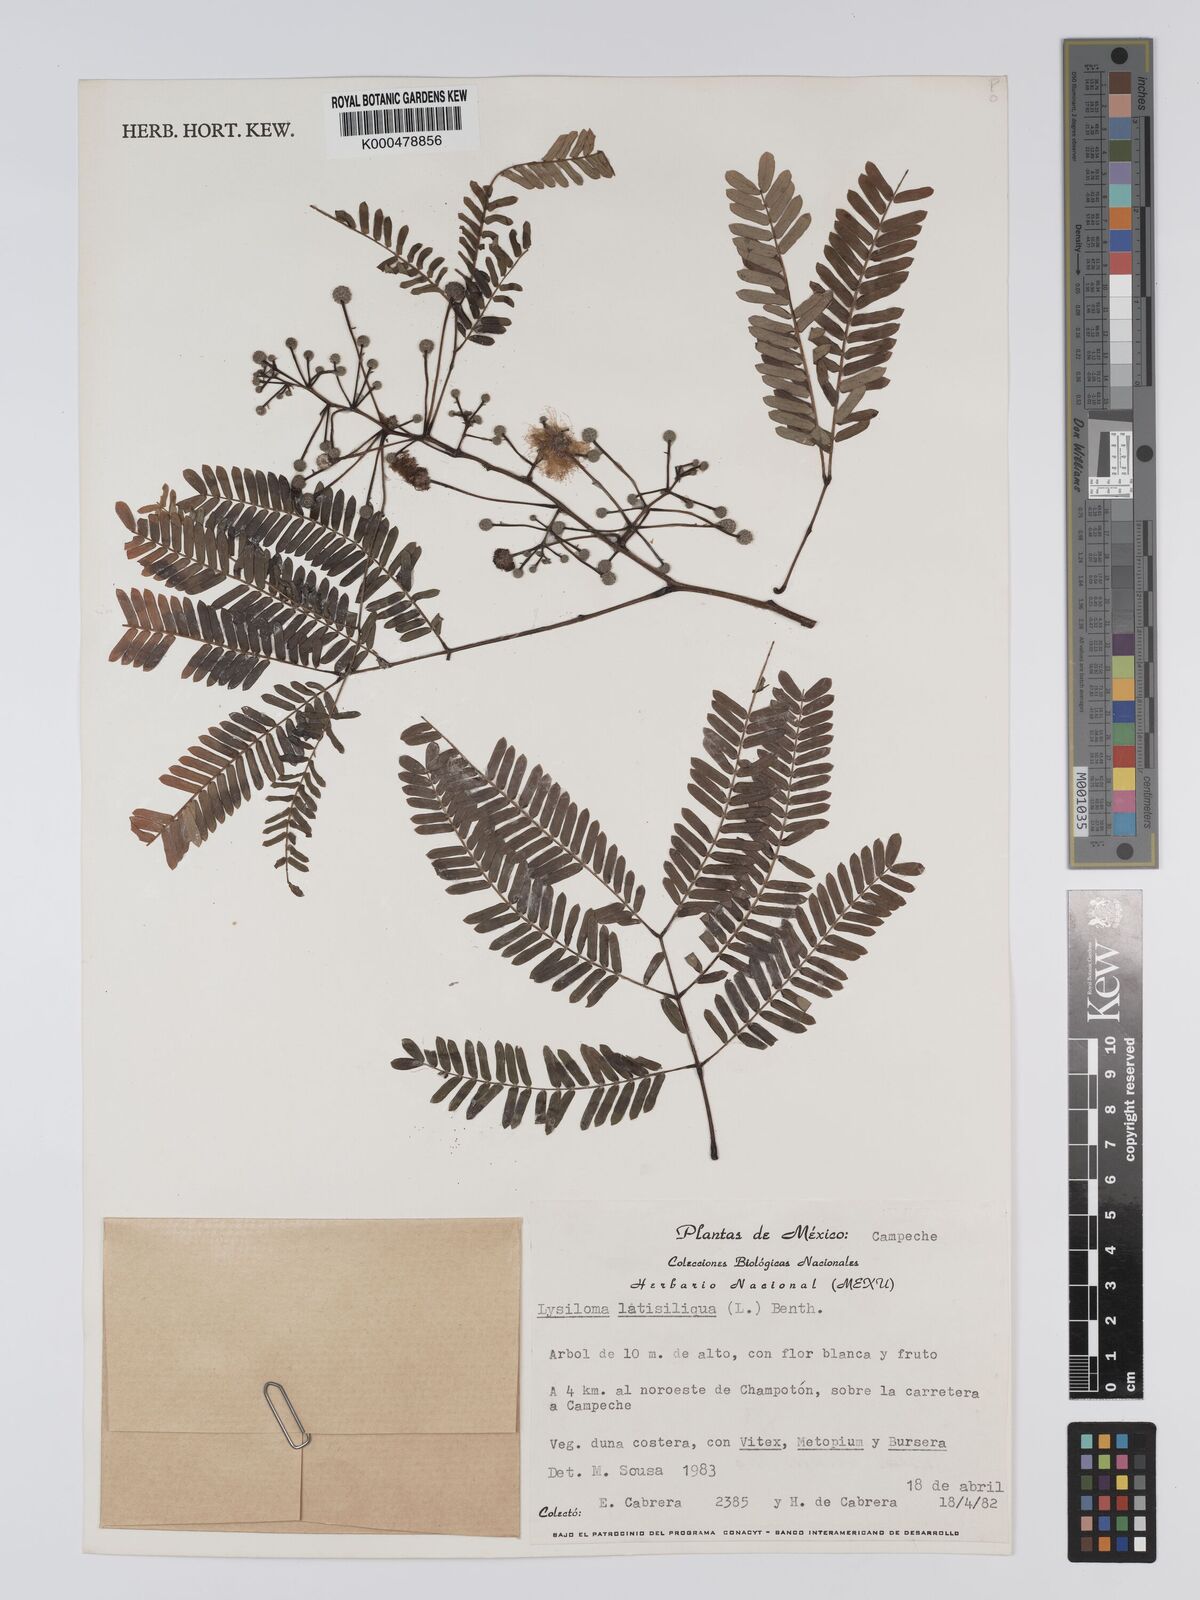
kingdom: Plantae
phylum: Tracheophyta
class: Magnoliopsida
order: Fabales
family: Fabaceae
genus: Lysiloma
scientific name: Lysiloma latisiliquum
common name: Wild tamarind
